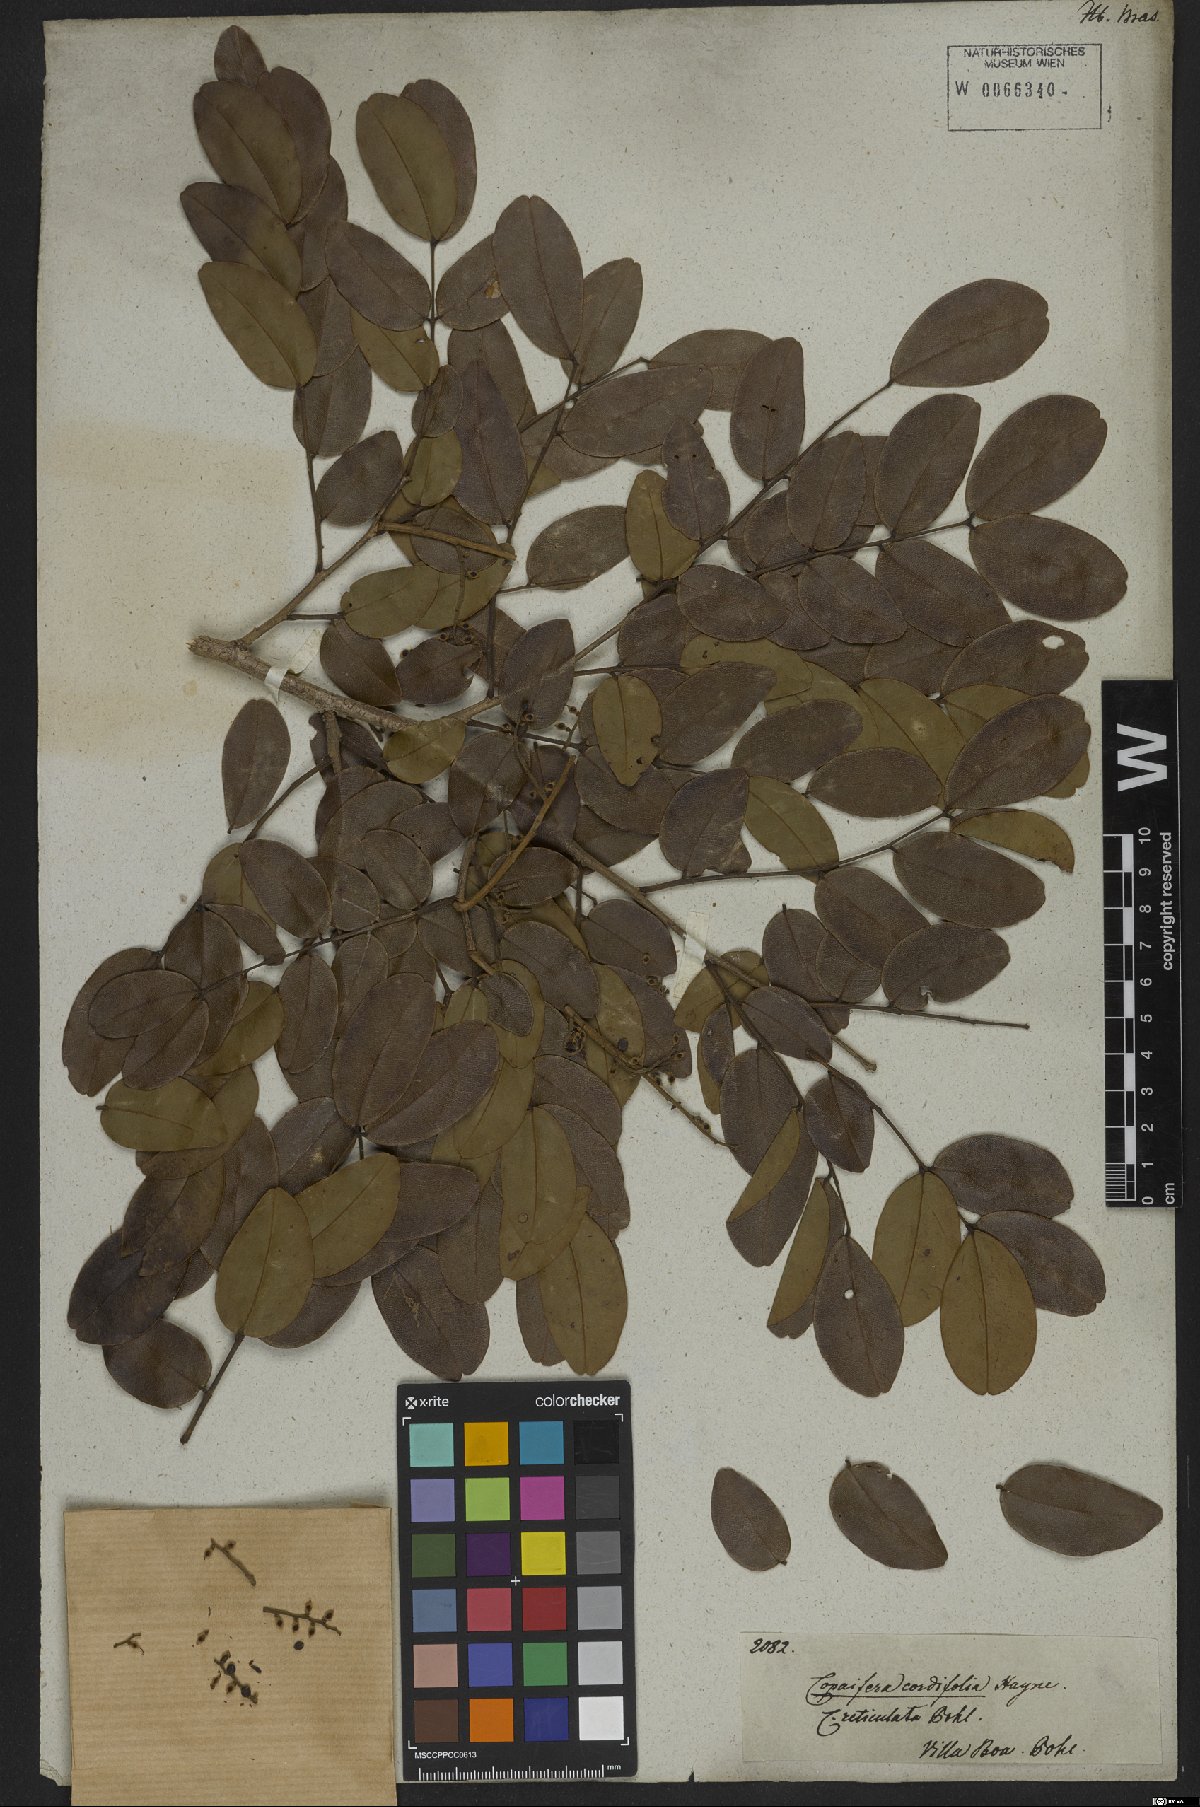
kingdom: Plantae
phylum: Tracheophyta
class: Magnoliopsida
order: Fabales
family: Fabaceae
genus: Copaifera
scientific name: Copaifera coriacea
